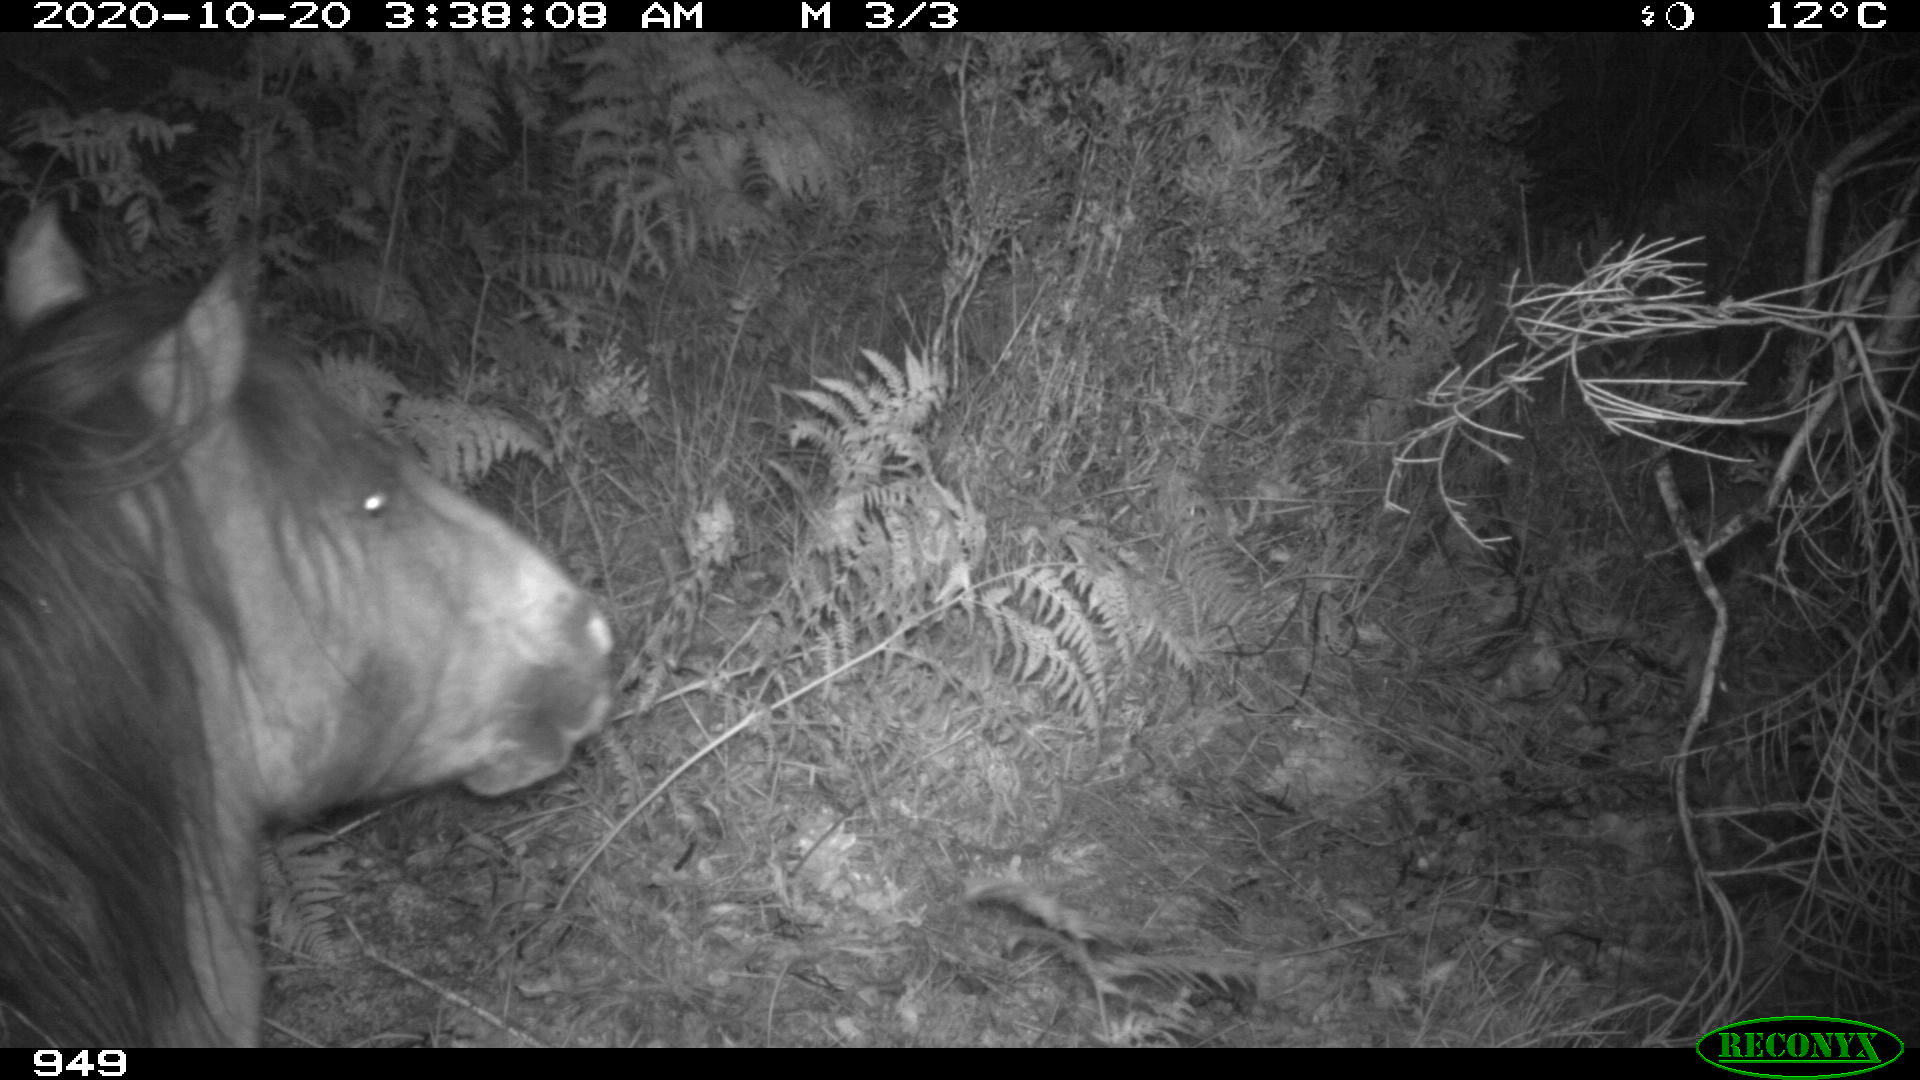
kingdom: Animalia
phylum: Chordata
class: Mammalia
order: Perissodactyla
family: Equidae
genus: Equus
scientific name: Equus caballus
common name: Horse
